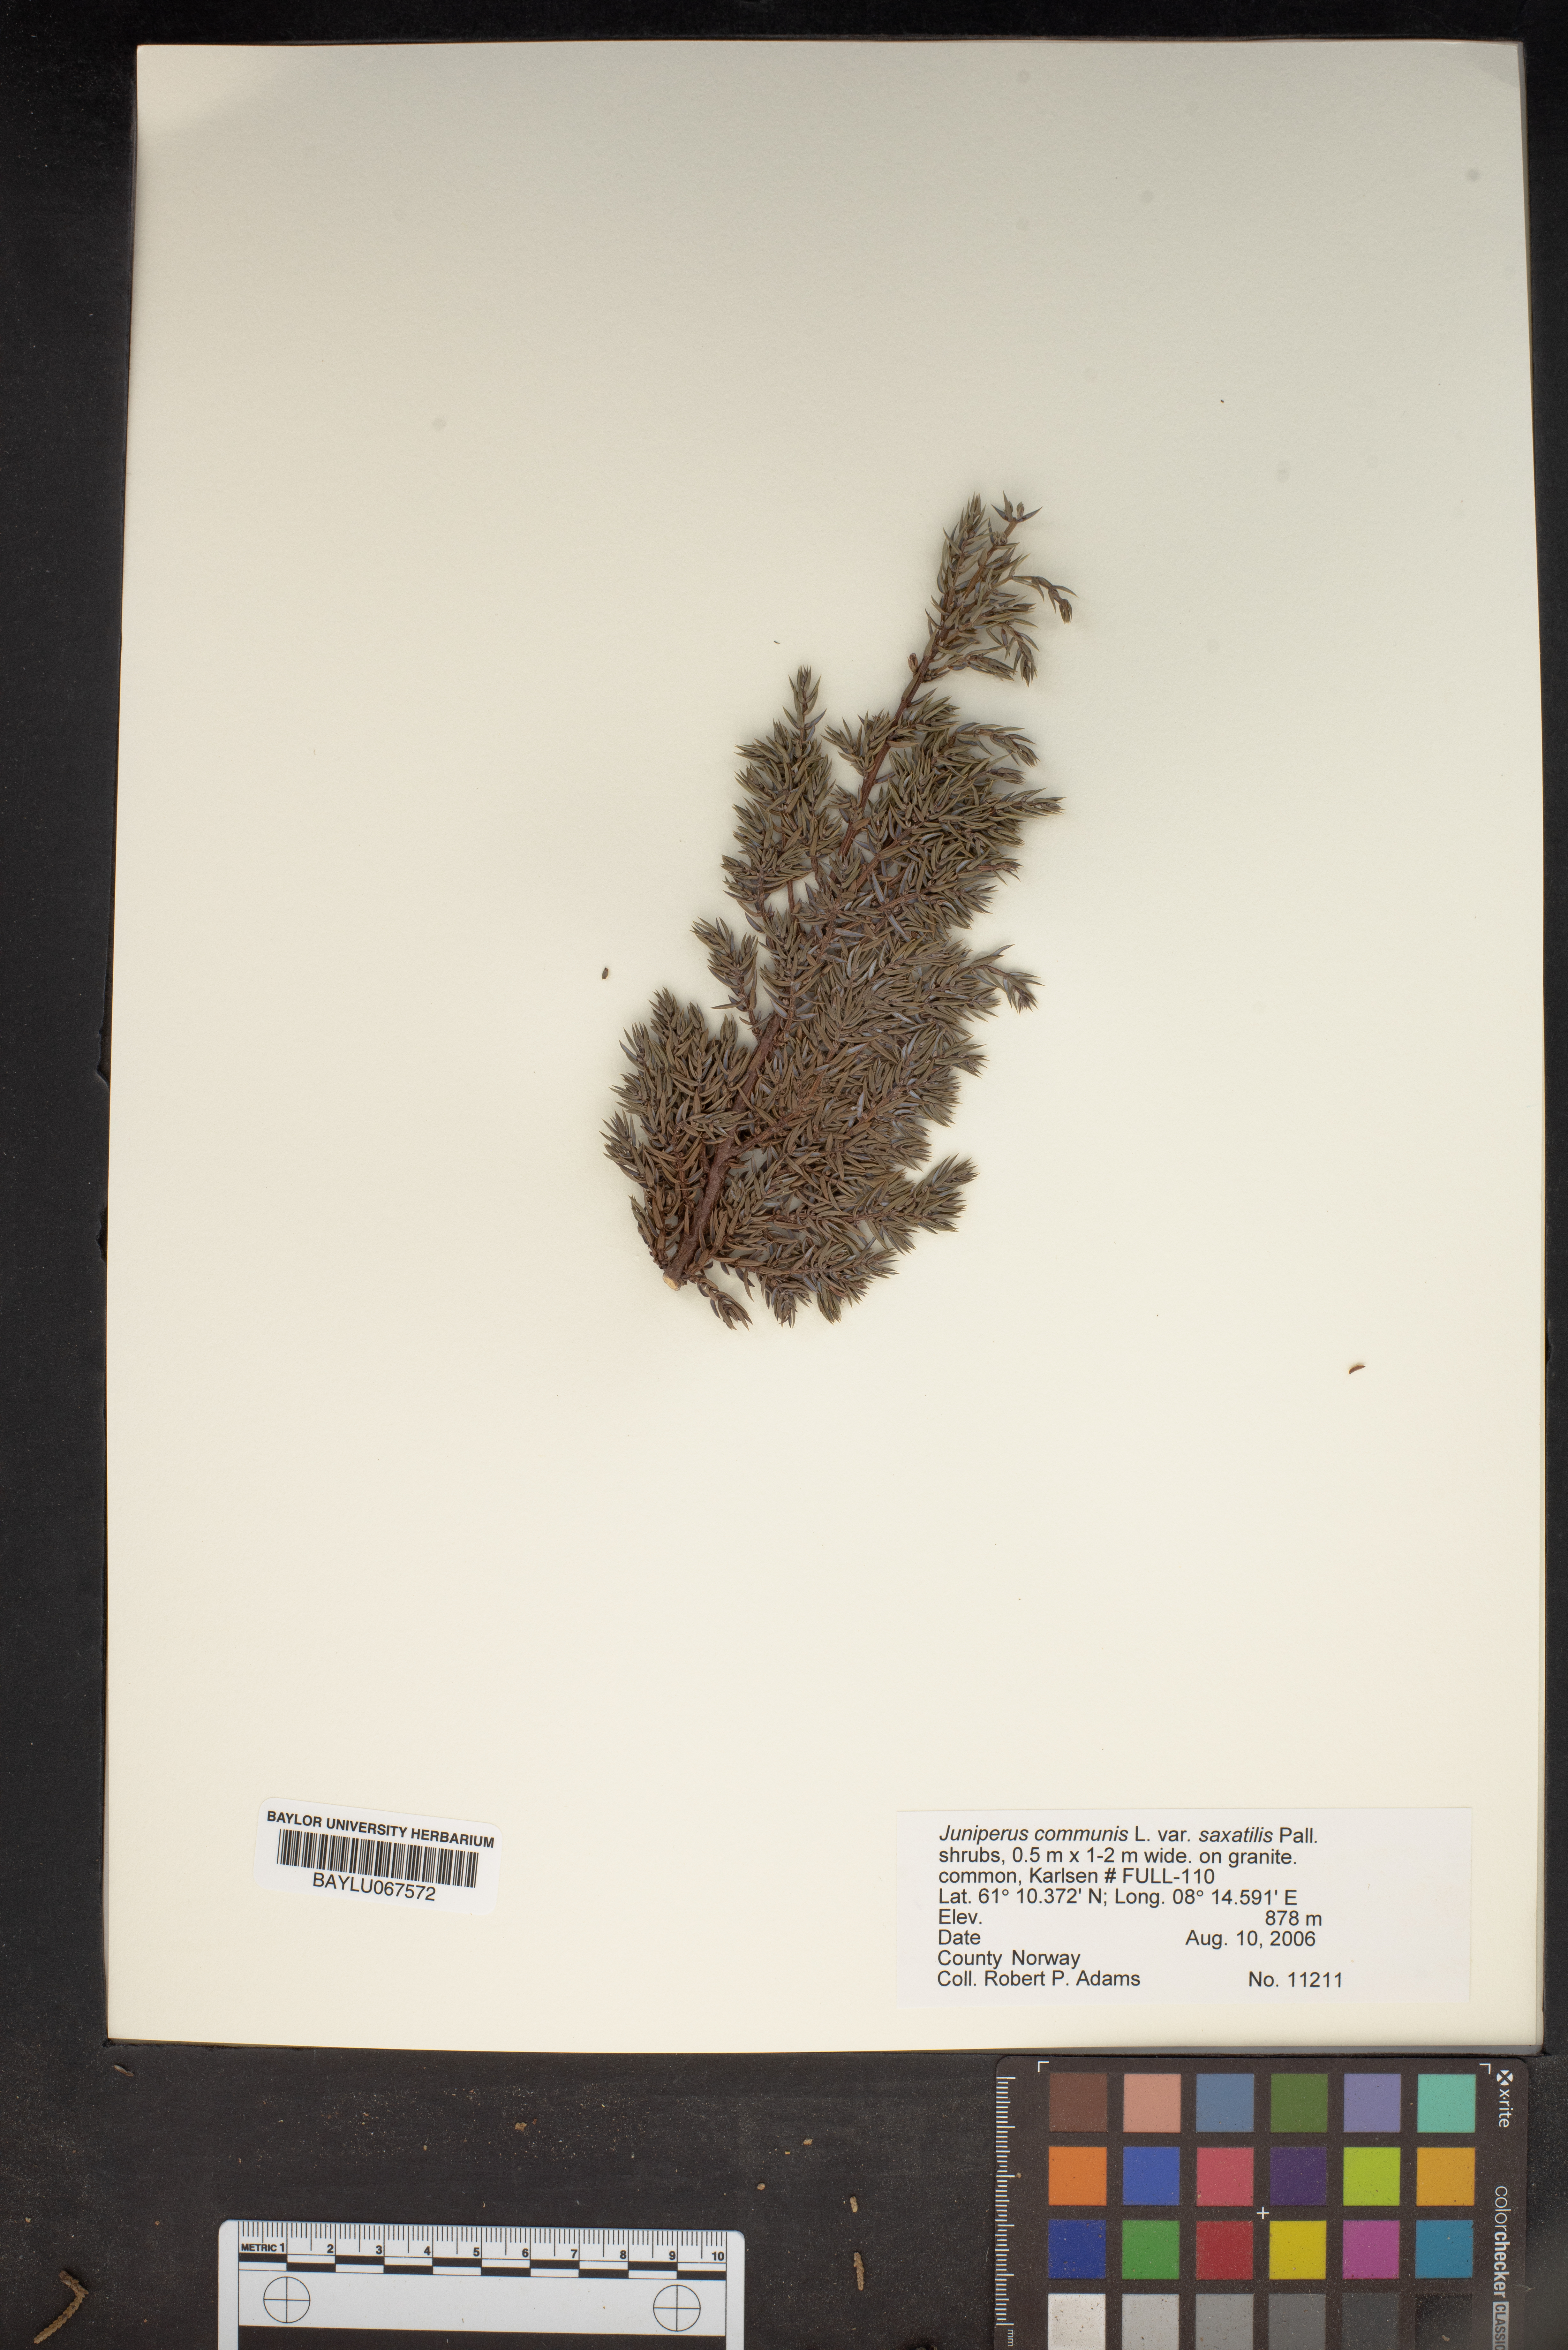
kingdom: Plantae
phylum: Tracheophyta
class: Pinopsida
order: Pinales
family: Cupressaceae
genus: Juniperus
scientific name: Juniperus communis
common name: Common juniper
